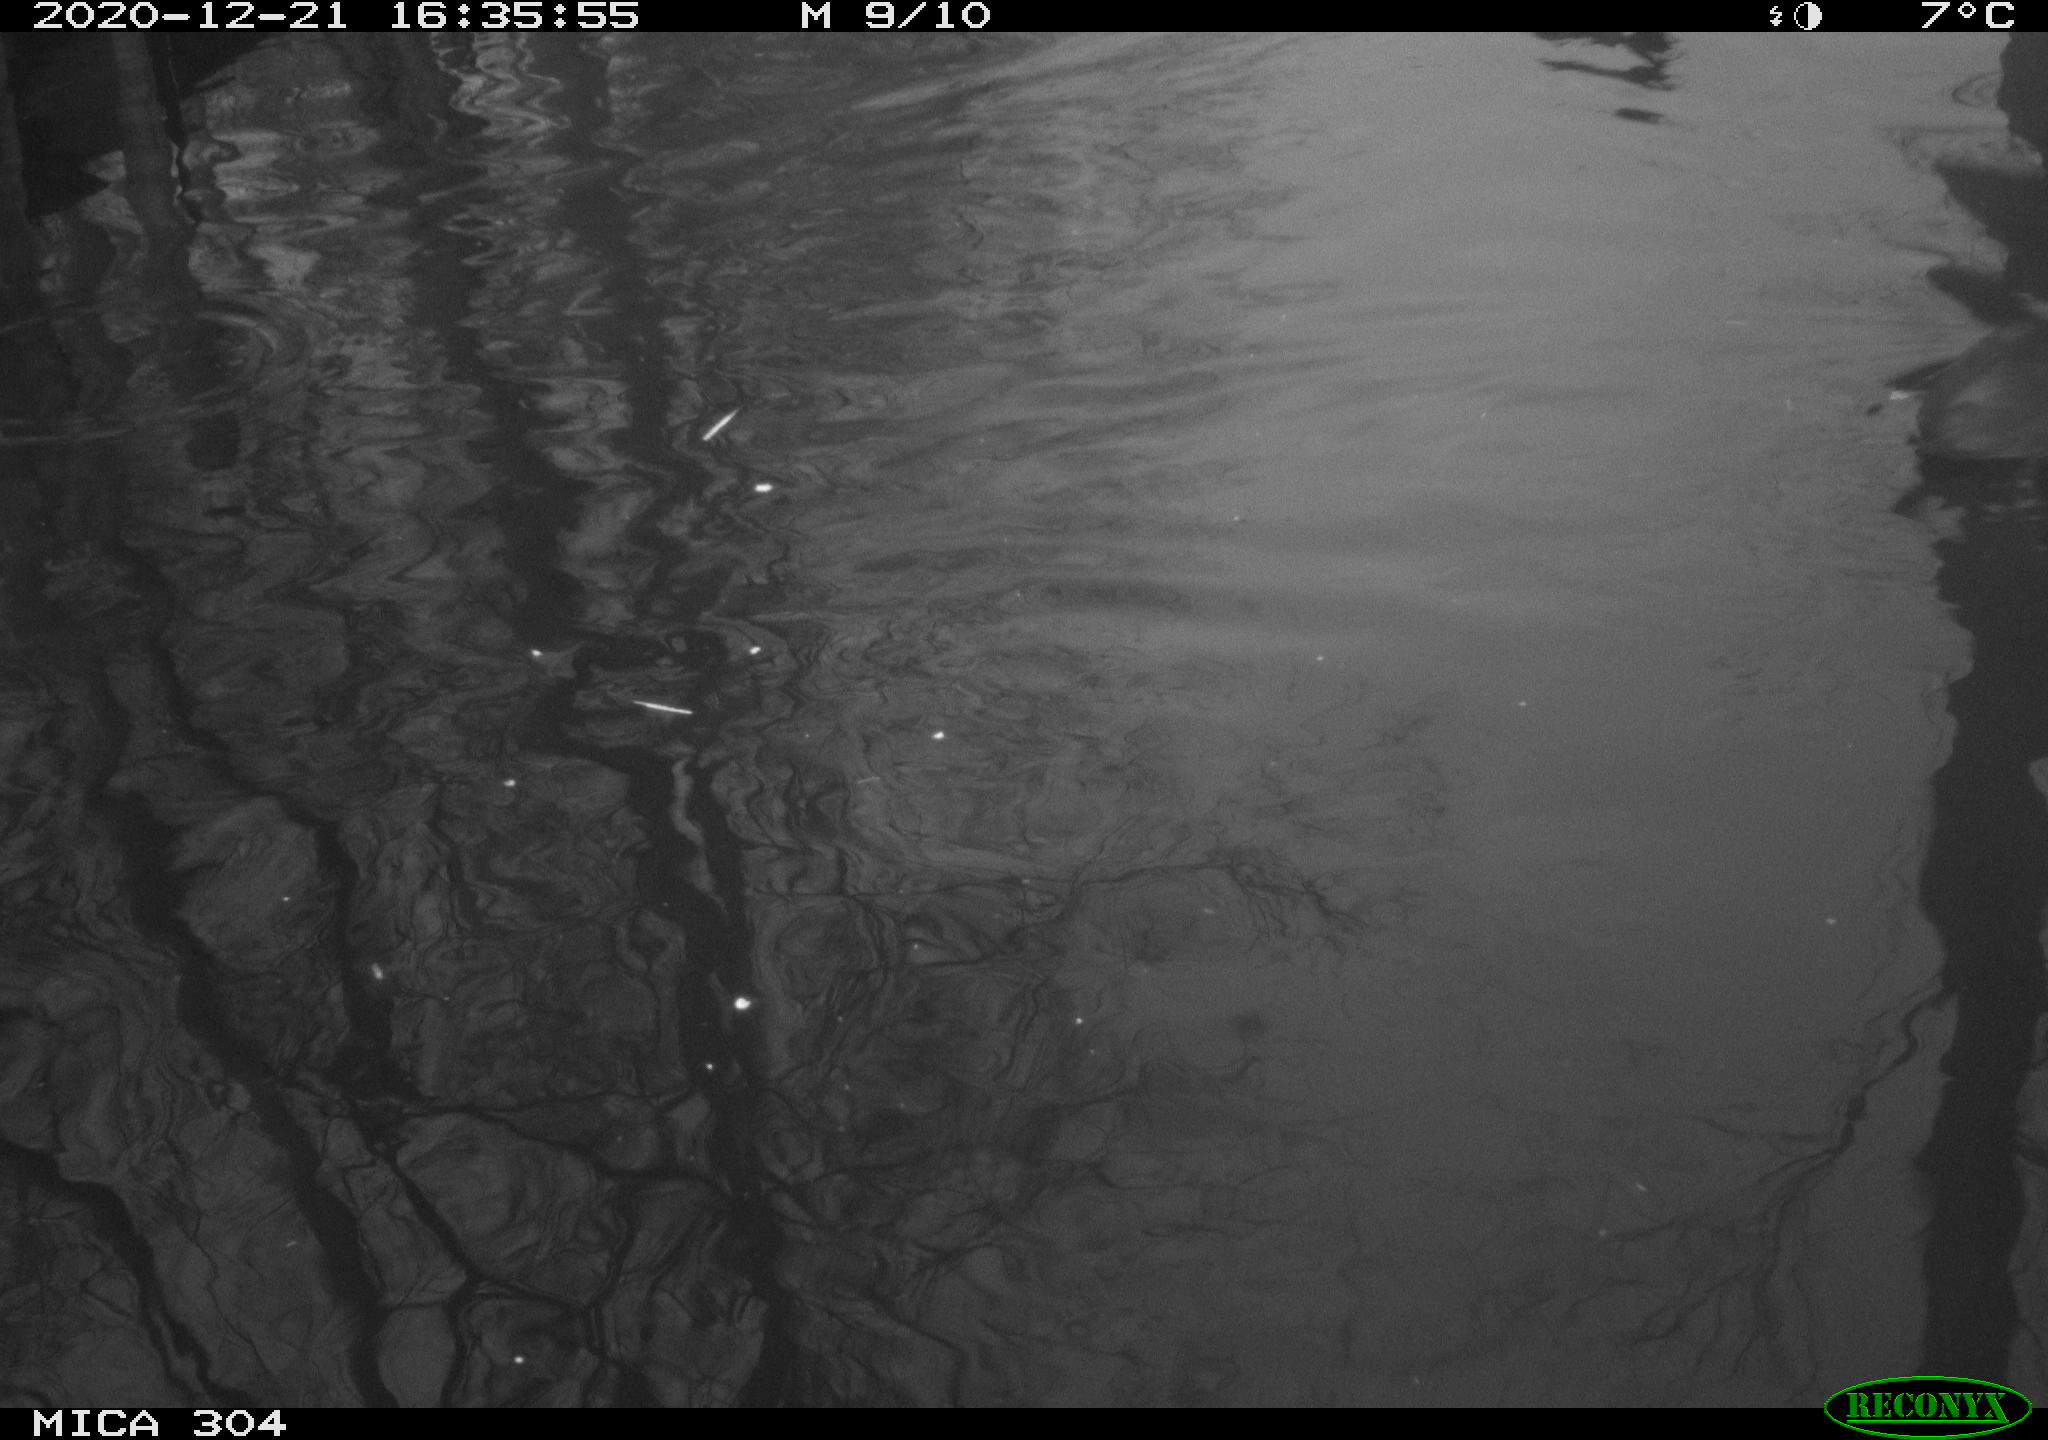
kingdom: Animalia
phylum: Chordata
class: Aves
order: Gruiformes
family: Rallidae
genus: Fulica
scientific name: Fulica atra
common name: Eurasian coot
